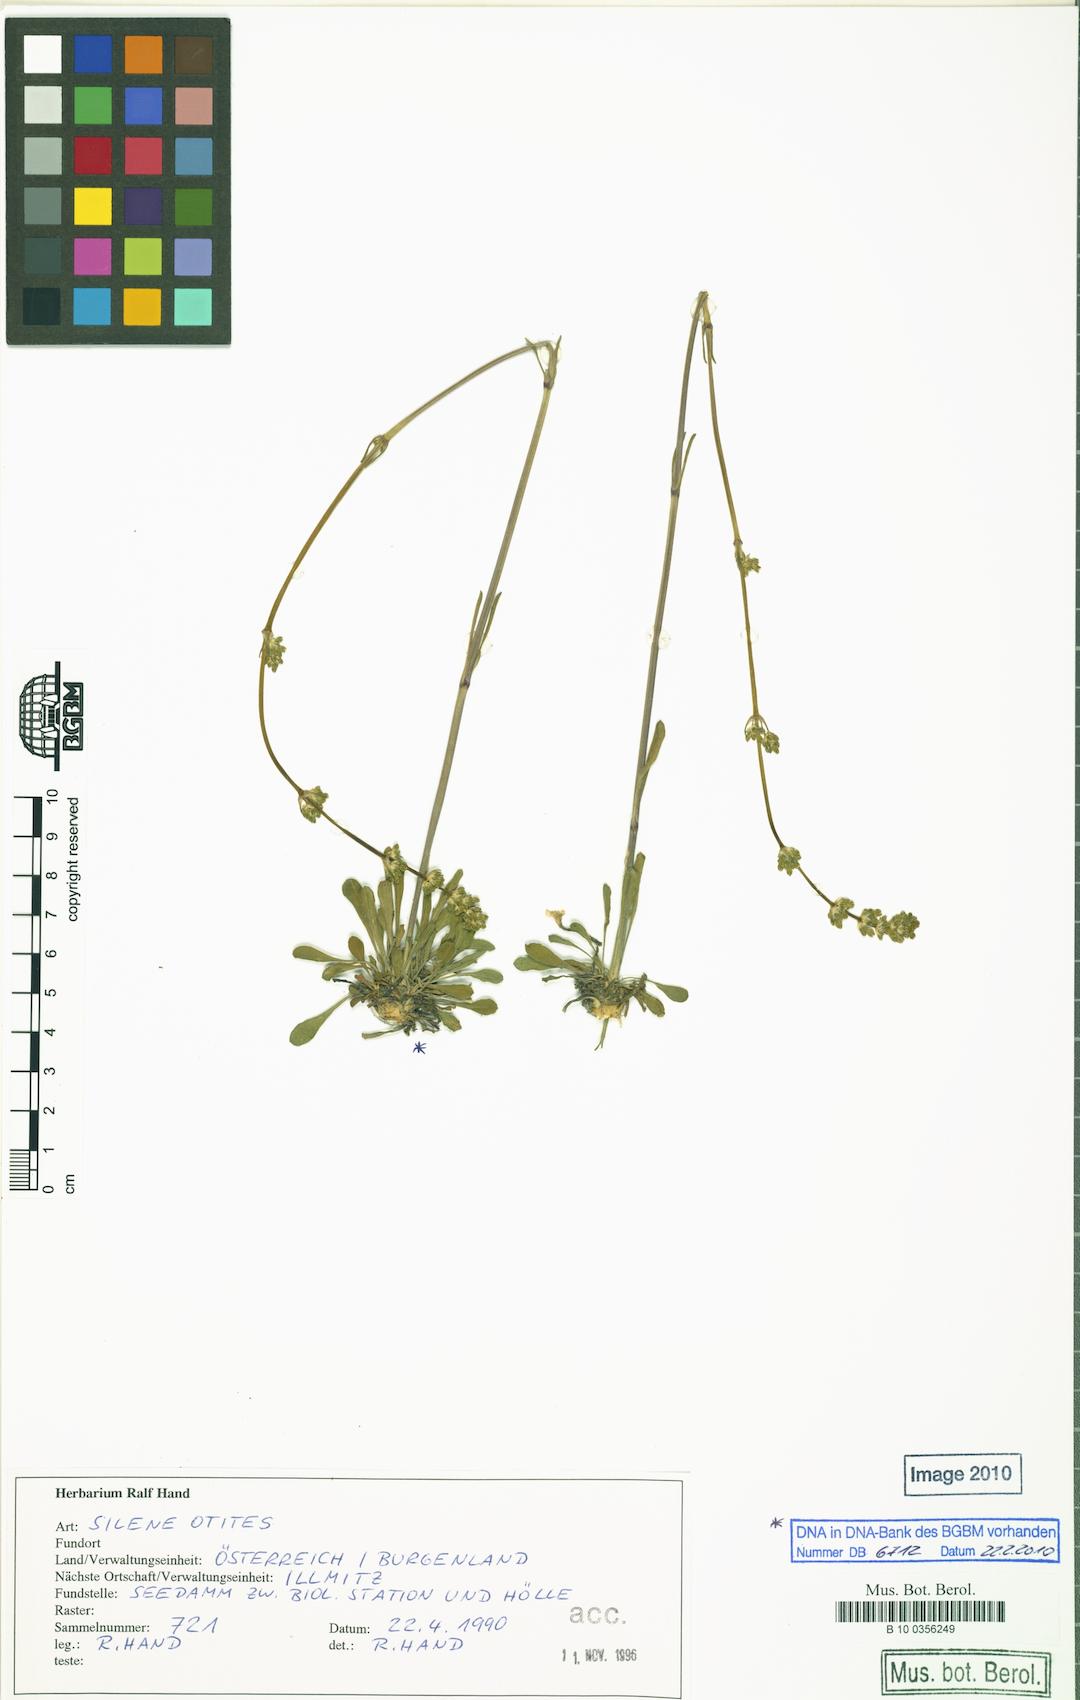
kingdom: Plantae
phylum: Tracheophyta
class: Magnoliopsida
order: Caryophyllales
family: Caryophyllaceae
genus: Silene
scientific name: Silene otites
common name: Spanish catchfly
